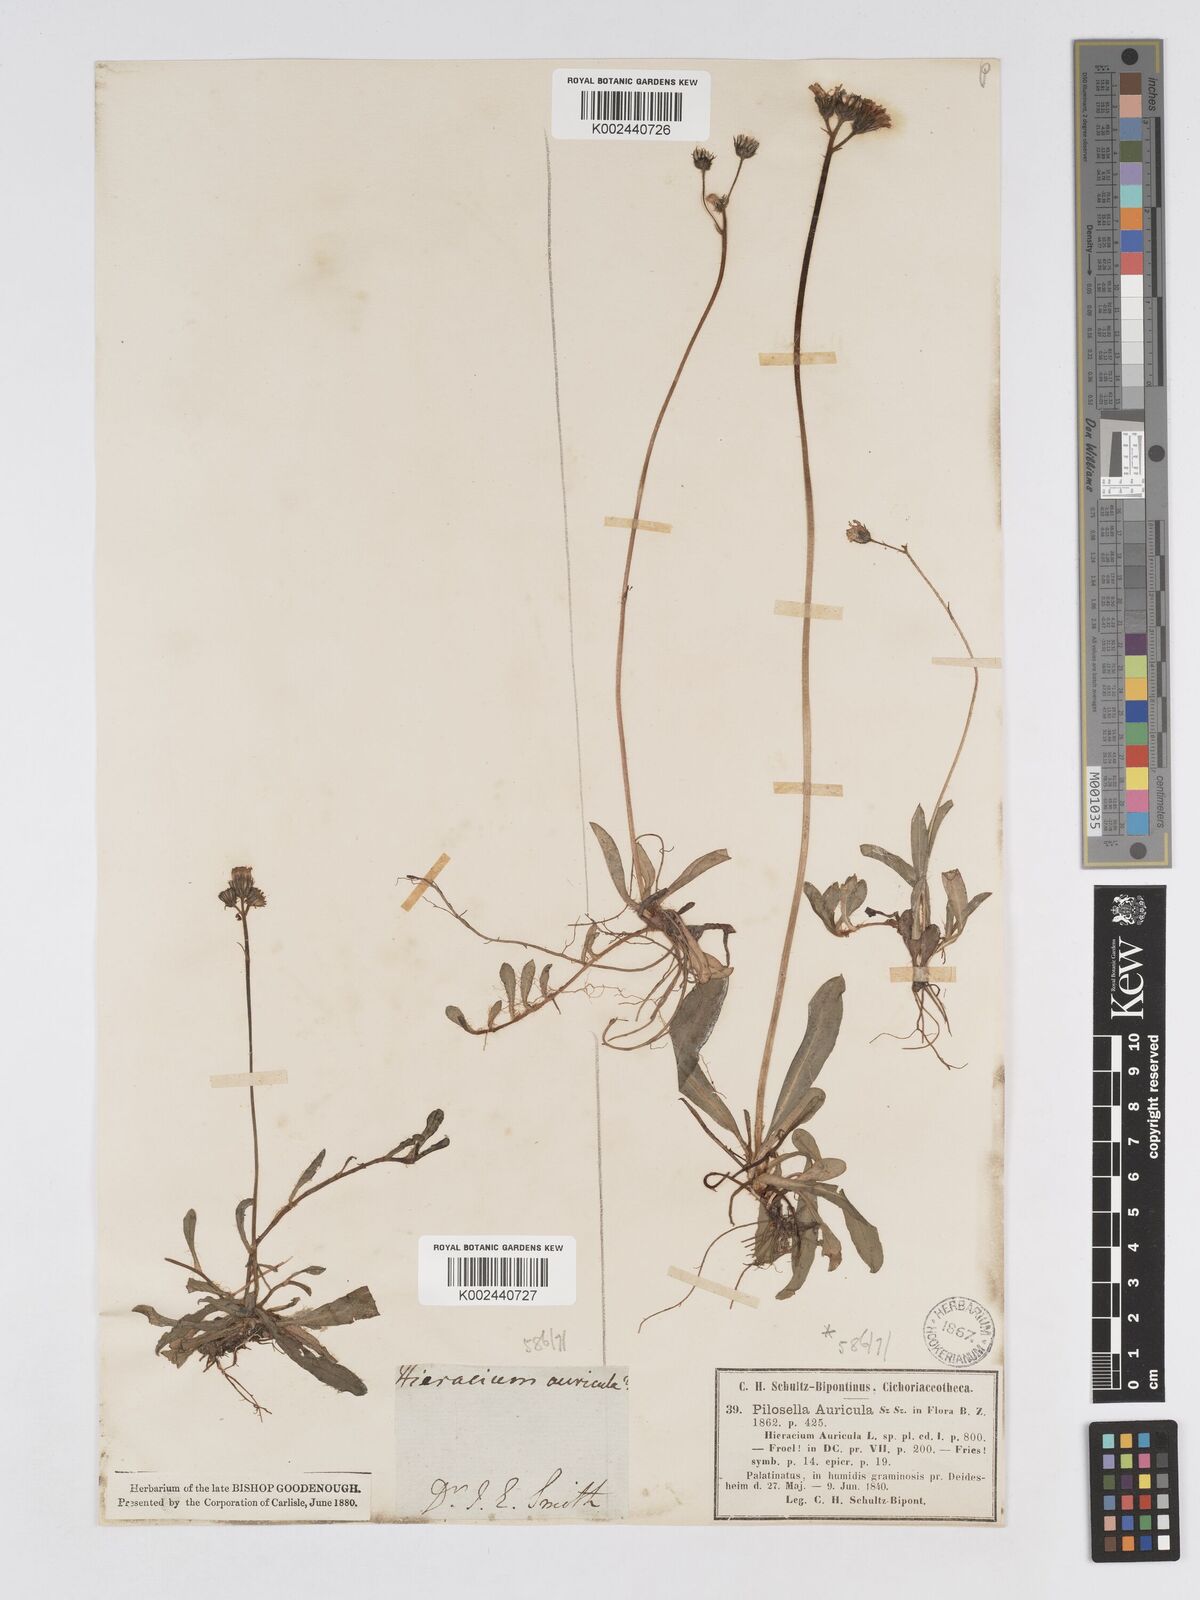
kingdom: Plantae
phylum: Tracheophyta
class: Magnoliopsida
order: Asterales
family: Asteraceae
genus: Pilosella
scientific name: Pilosella floribunda
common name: Glaucous hawkweed
